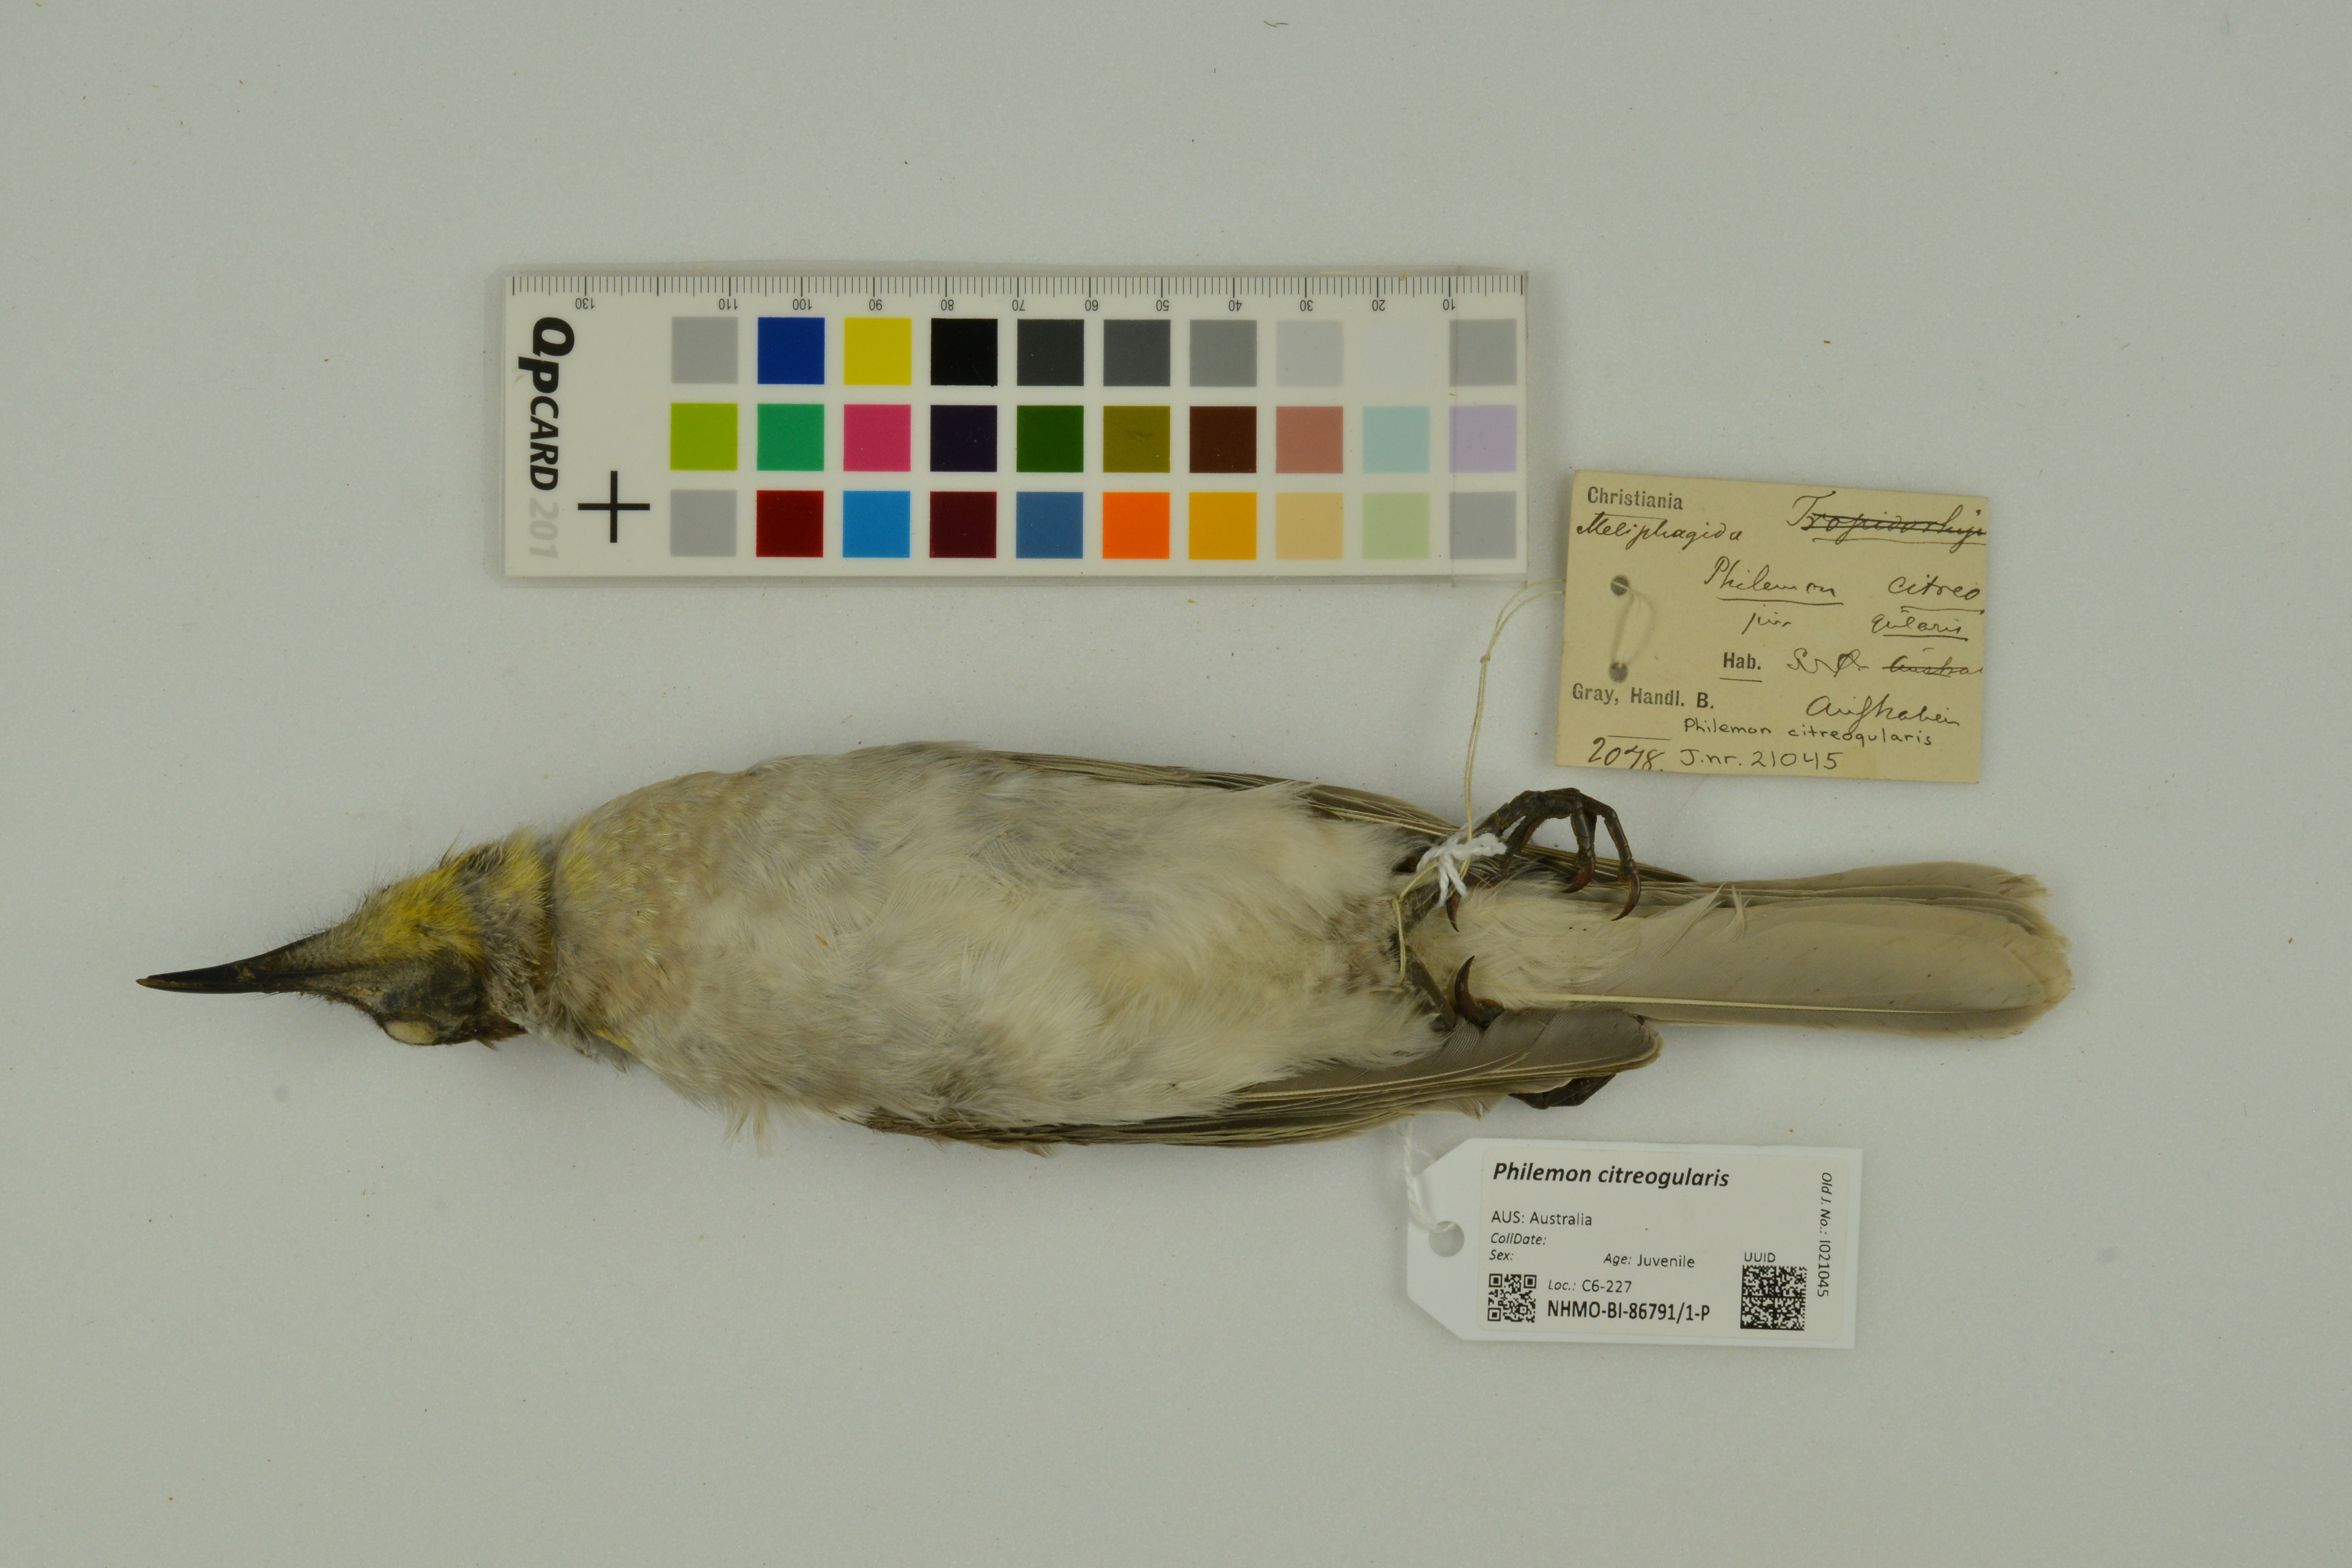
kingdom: Animalia
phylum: Chordata
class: Aves
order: Passeriformes
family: Meliphagidae
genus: Philemon
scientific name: Philemon citreogularis
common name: Little friarbird
